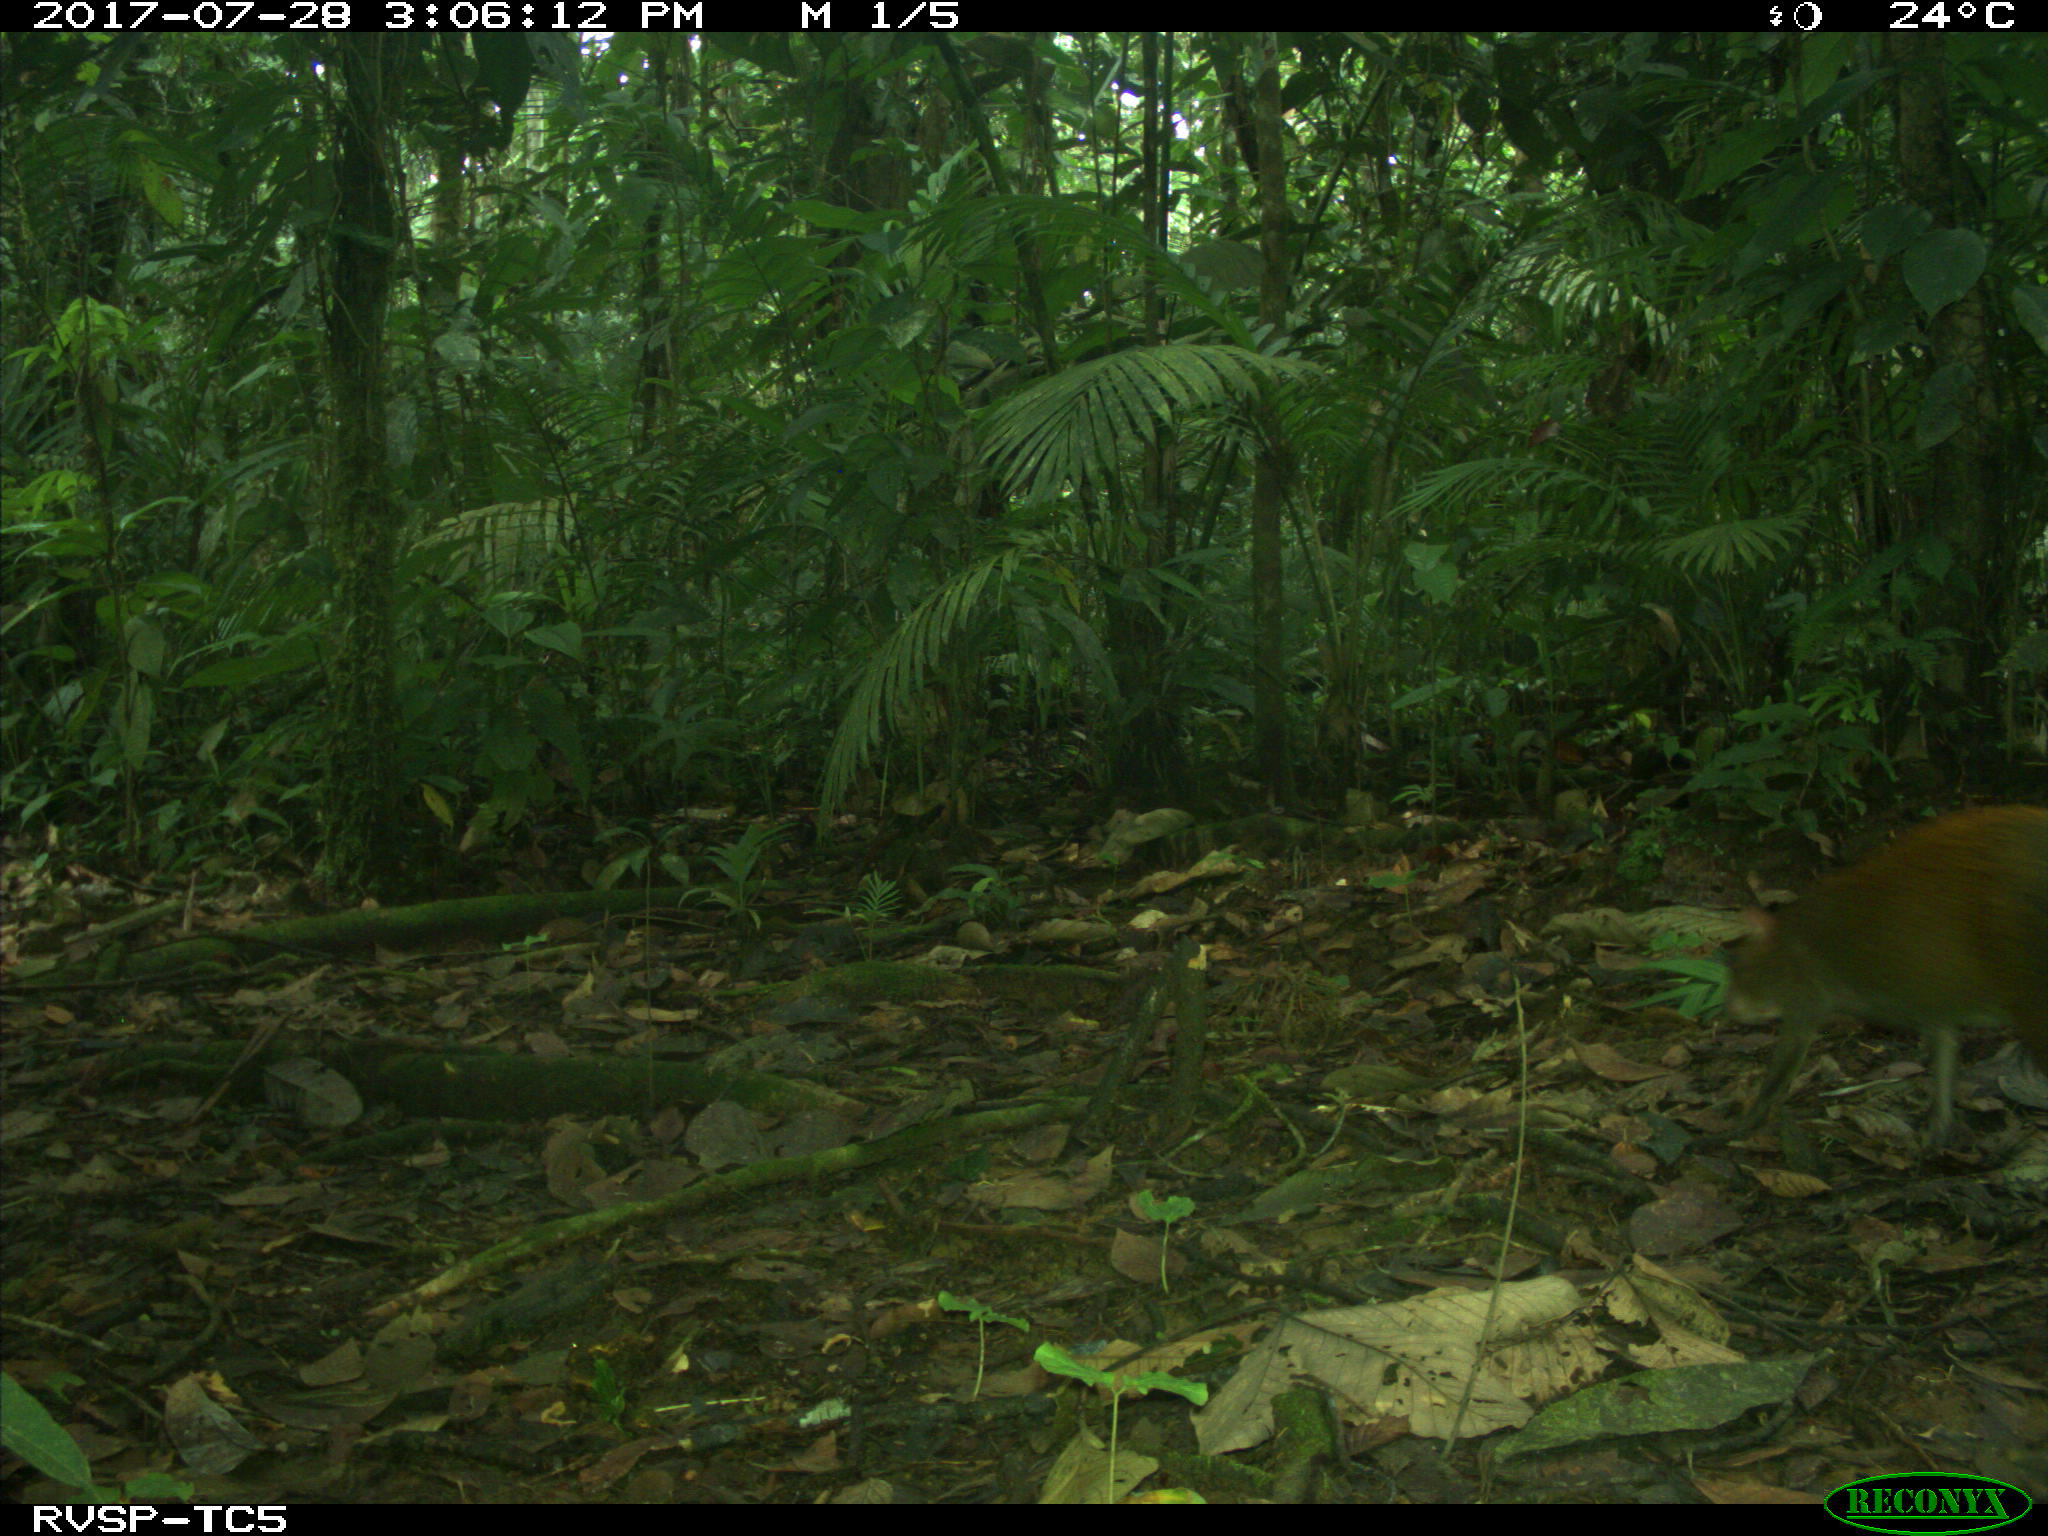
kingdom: Animalia
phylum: Chordata
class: Mammalia
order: Rodentia
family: Dasyproctidae
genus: Dasyprocta
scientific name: Dasyprocta punctata
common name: Central american agouti
